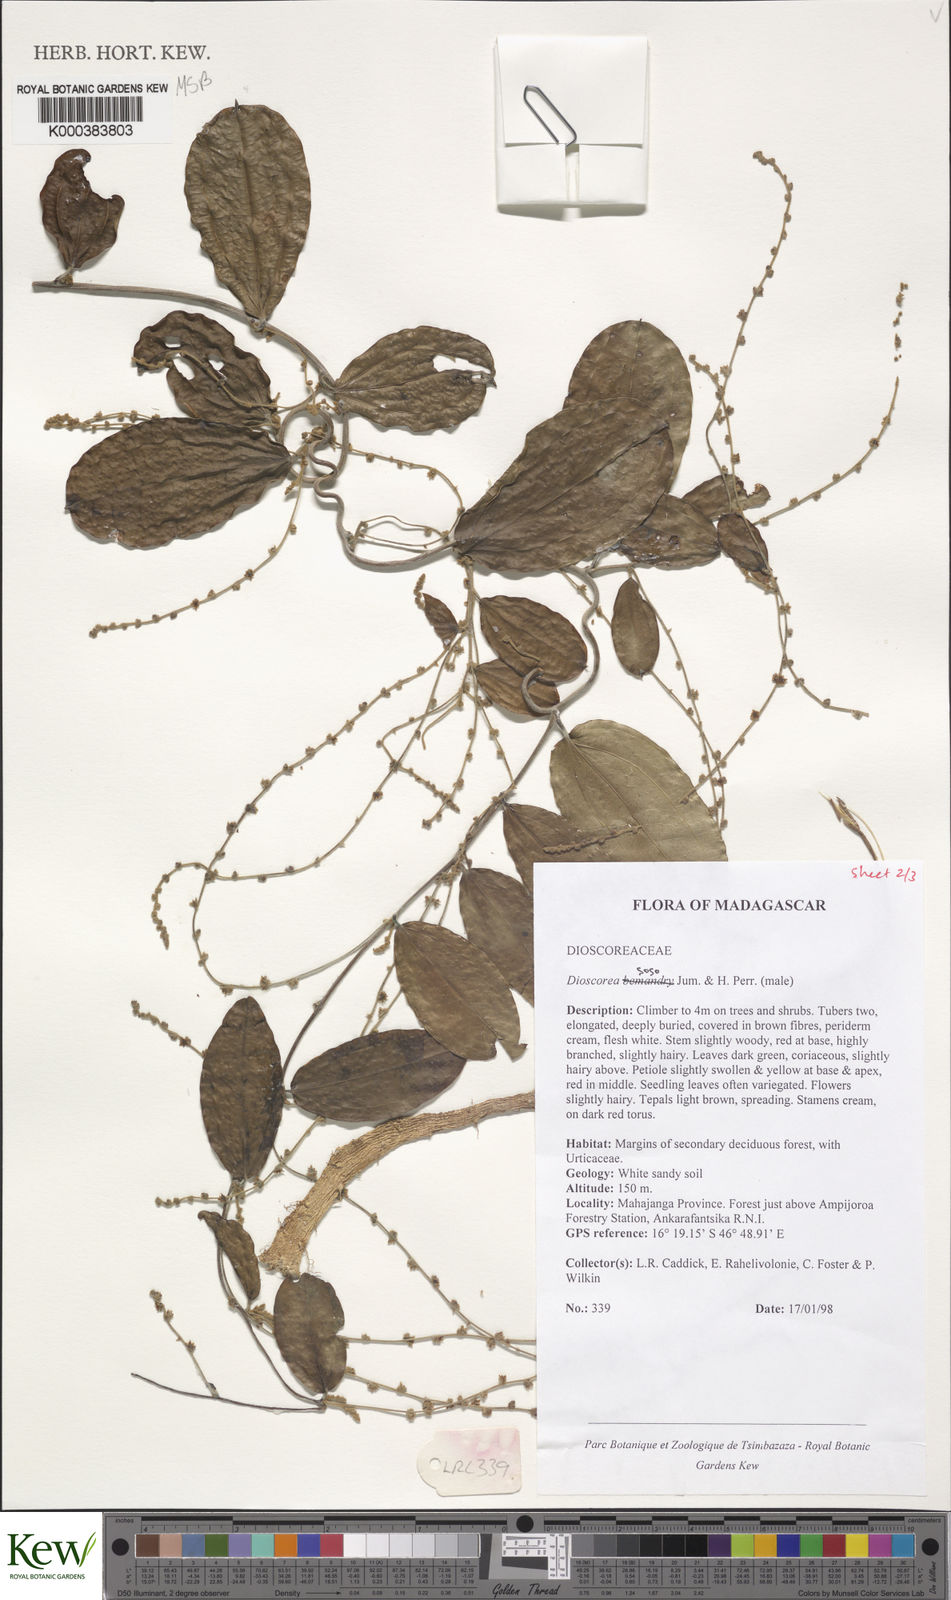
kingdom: Plantae
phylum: Tracheophyta
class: Liliopsida
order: Dioscoreales
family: Dioscoreaceae
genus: Dioscorea
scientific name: Dioscorea
